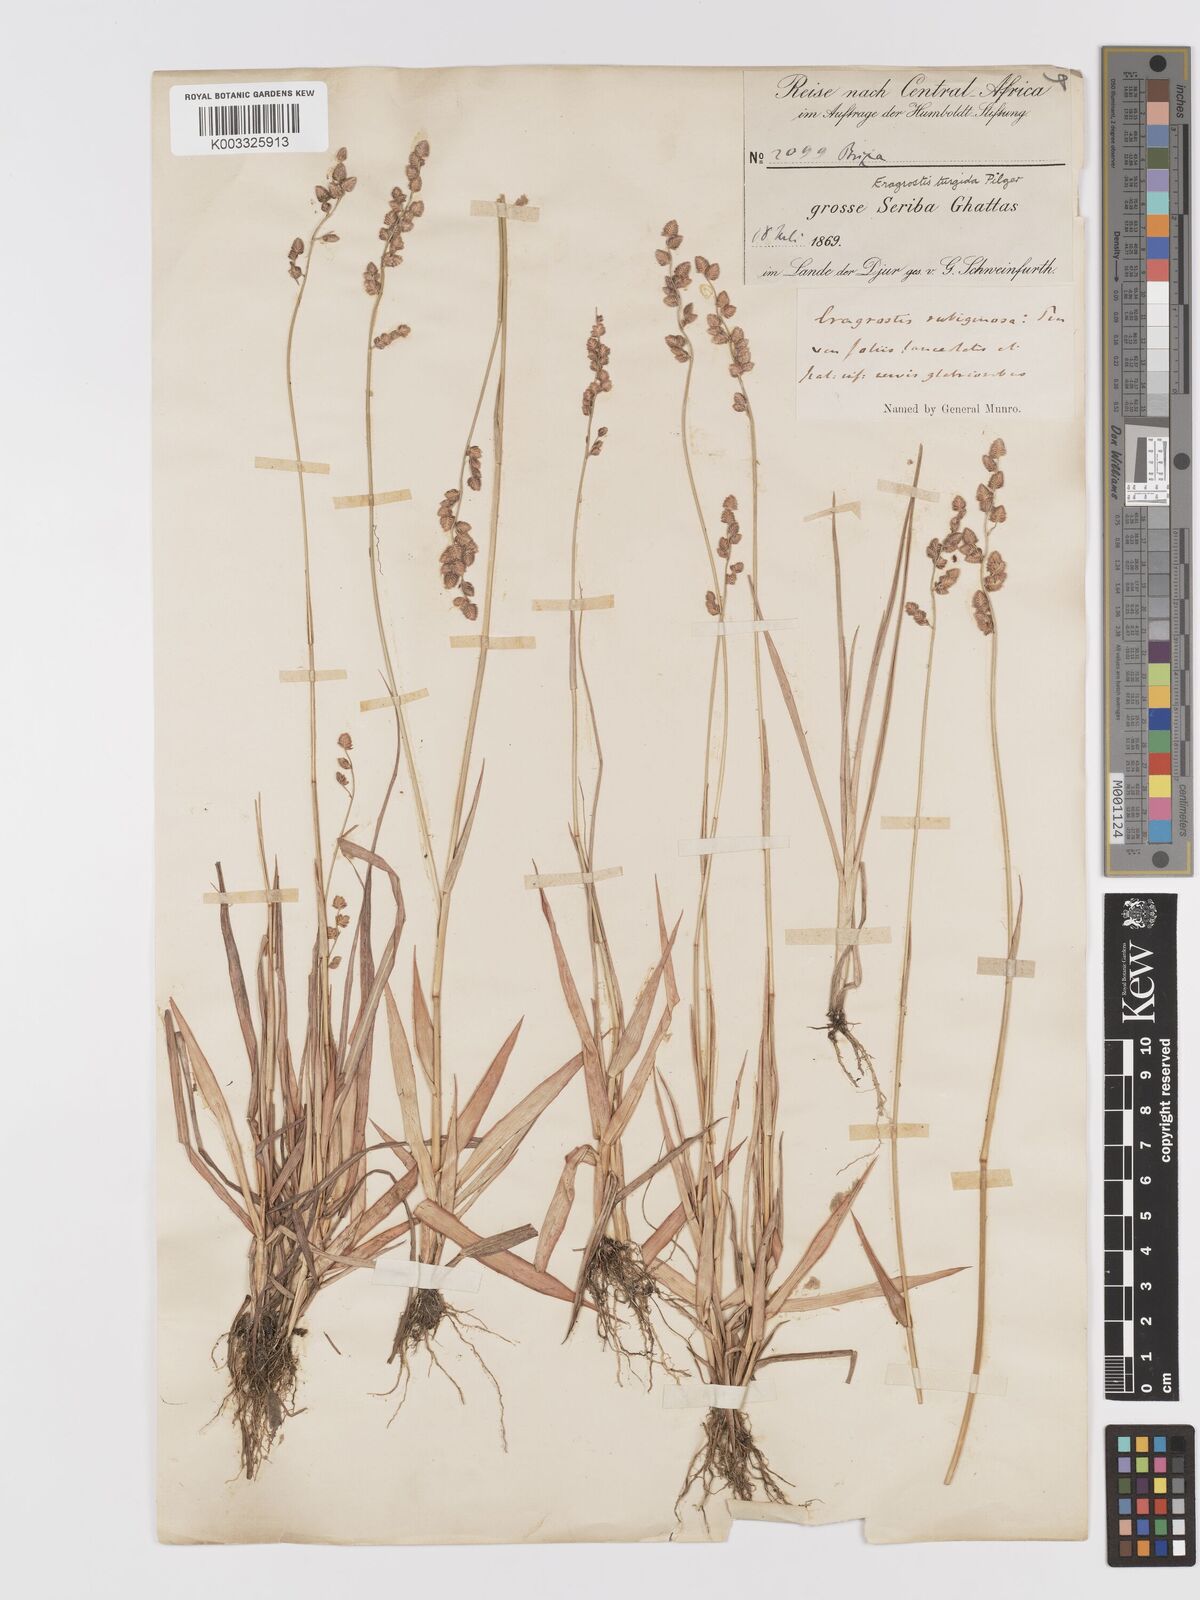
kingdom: Plantae
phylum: Tracheophyta
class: Liliopsida
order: Poales
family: Poaceae
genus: Eragrostis
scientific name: Eragrostis turgida
